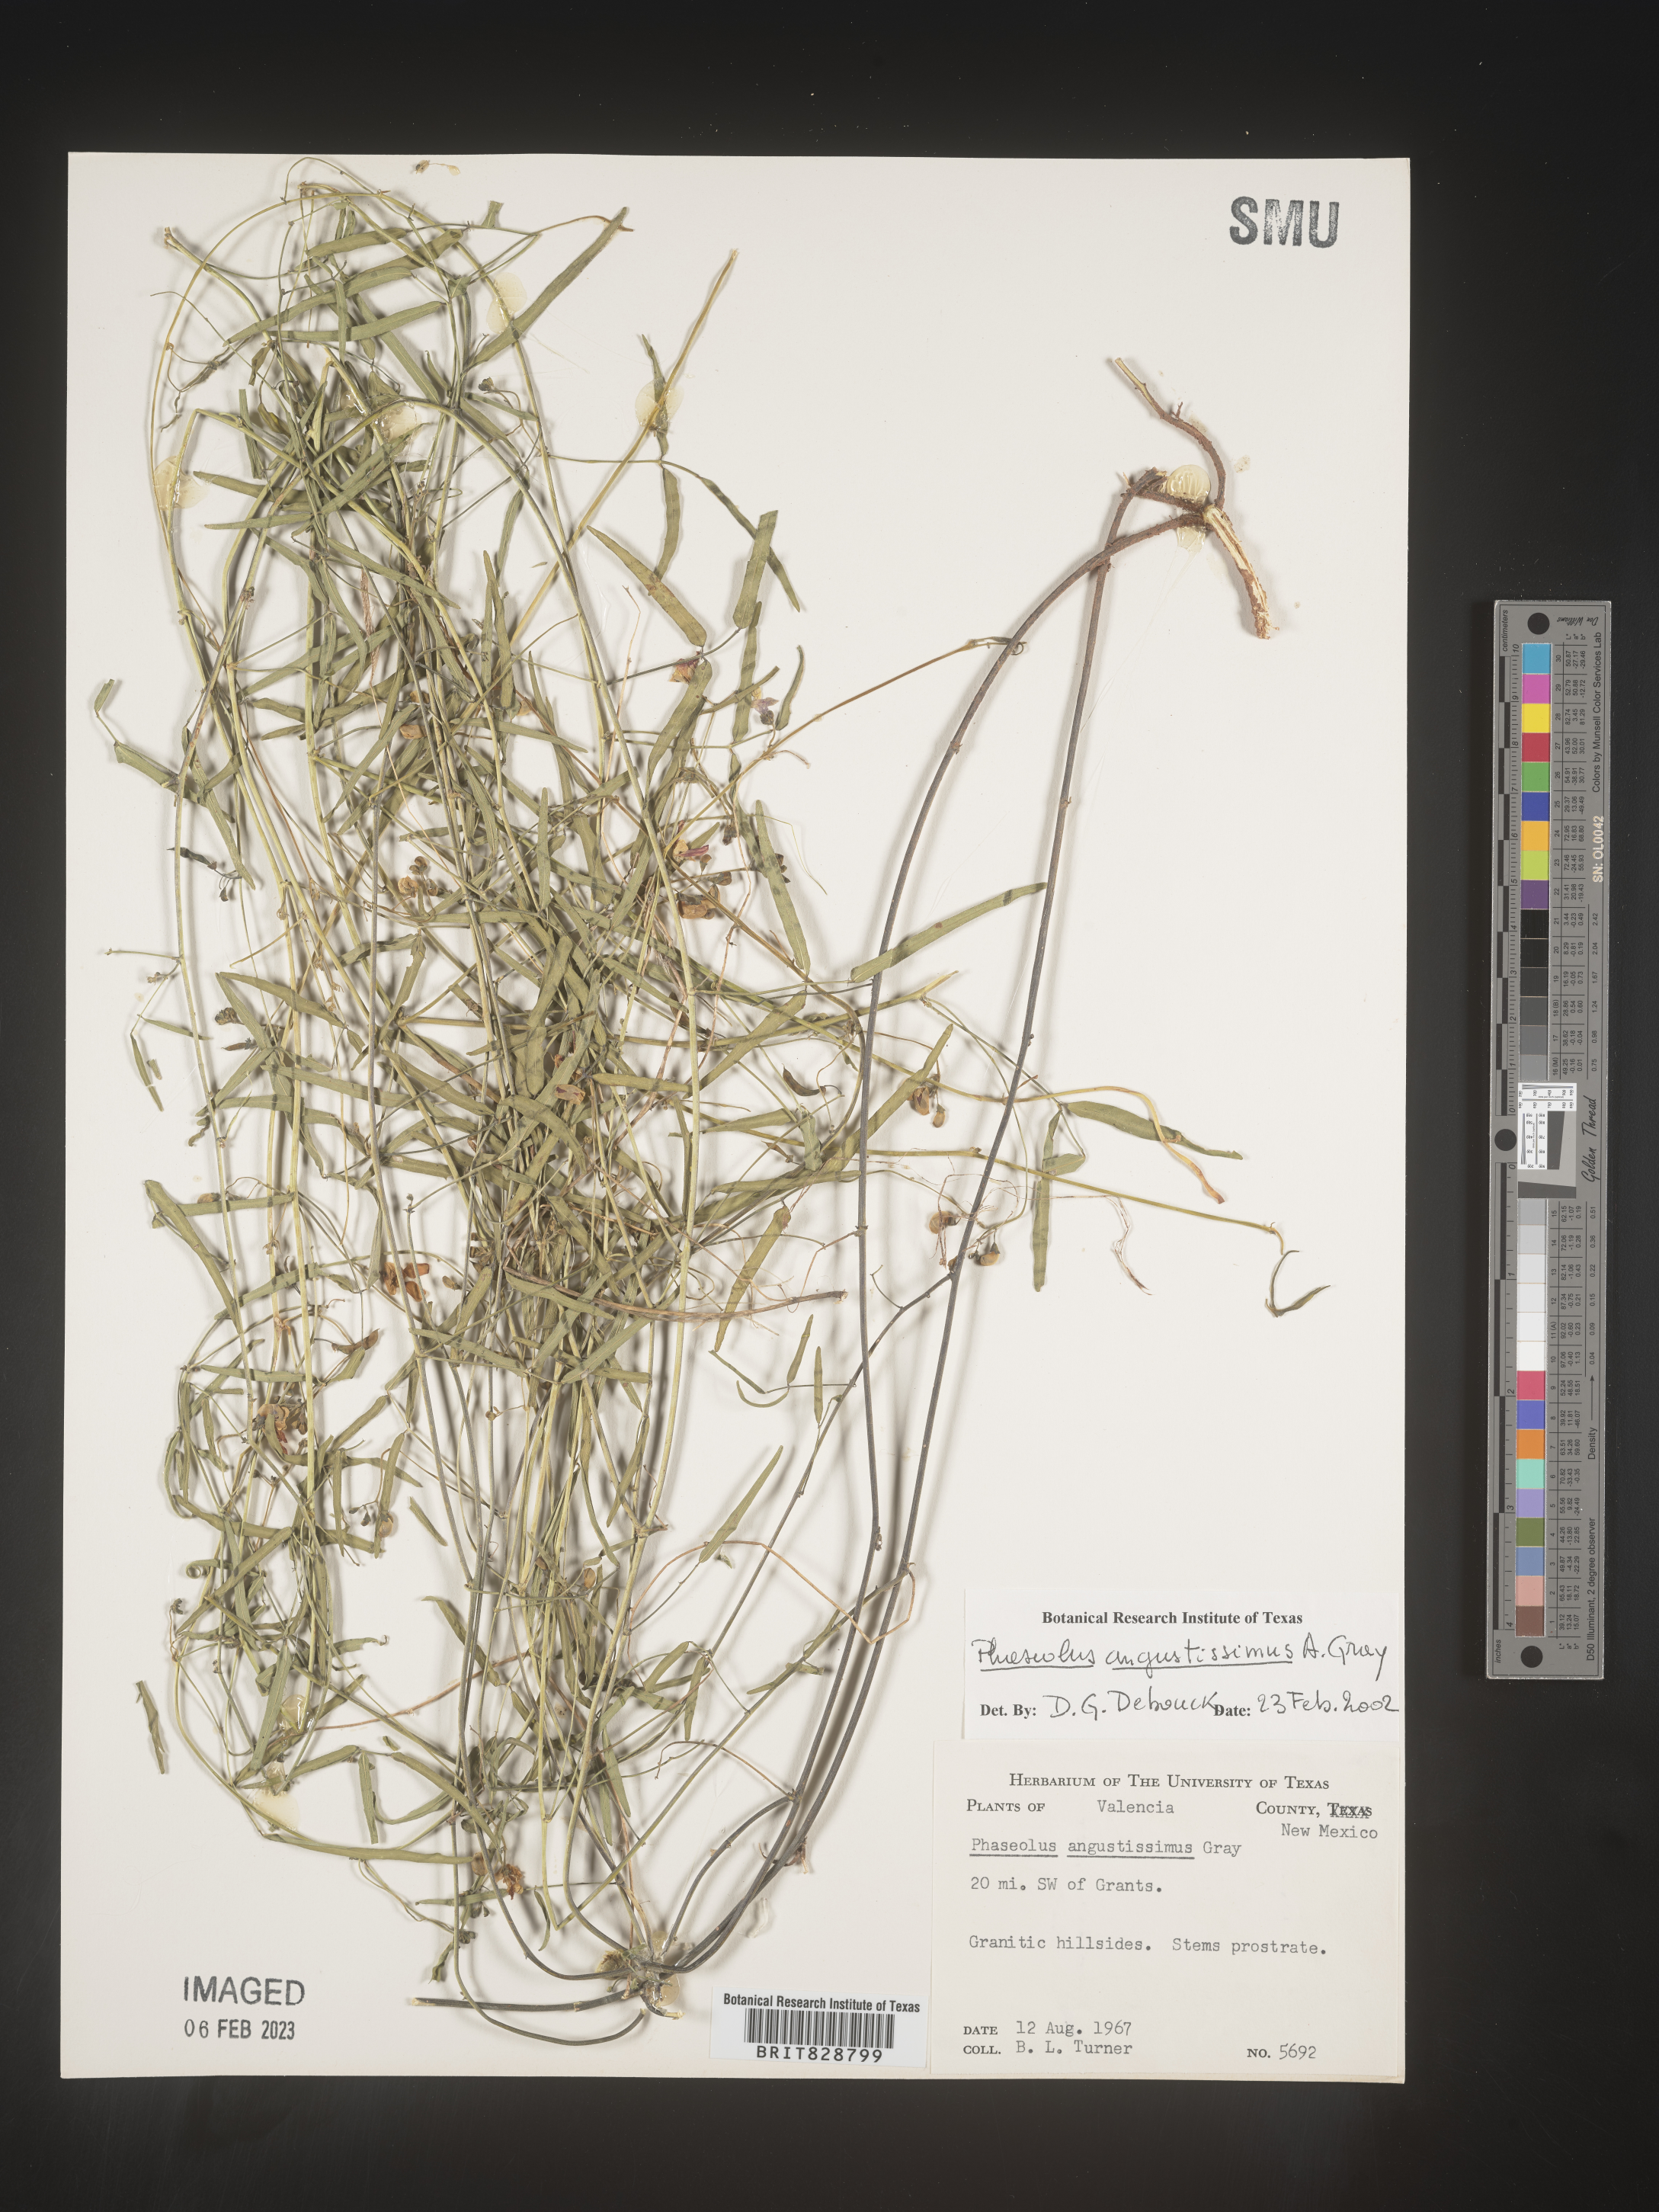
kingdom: Plantae
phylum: Tracheophyta
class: Magnoliopsida
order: Fabales
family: Fabaceae
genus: Phaseolus
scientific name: Phaseolus
